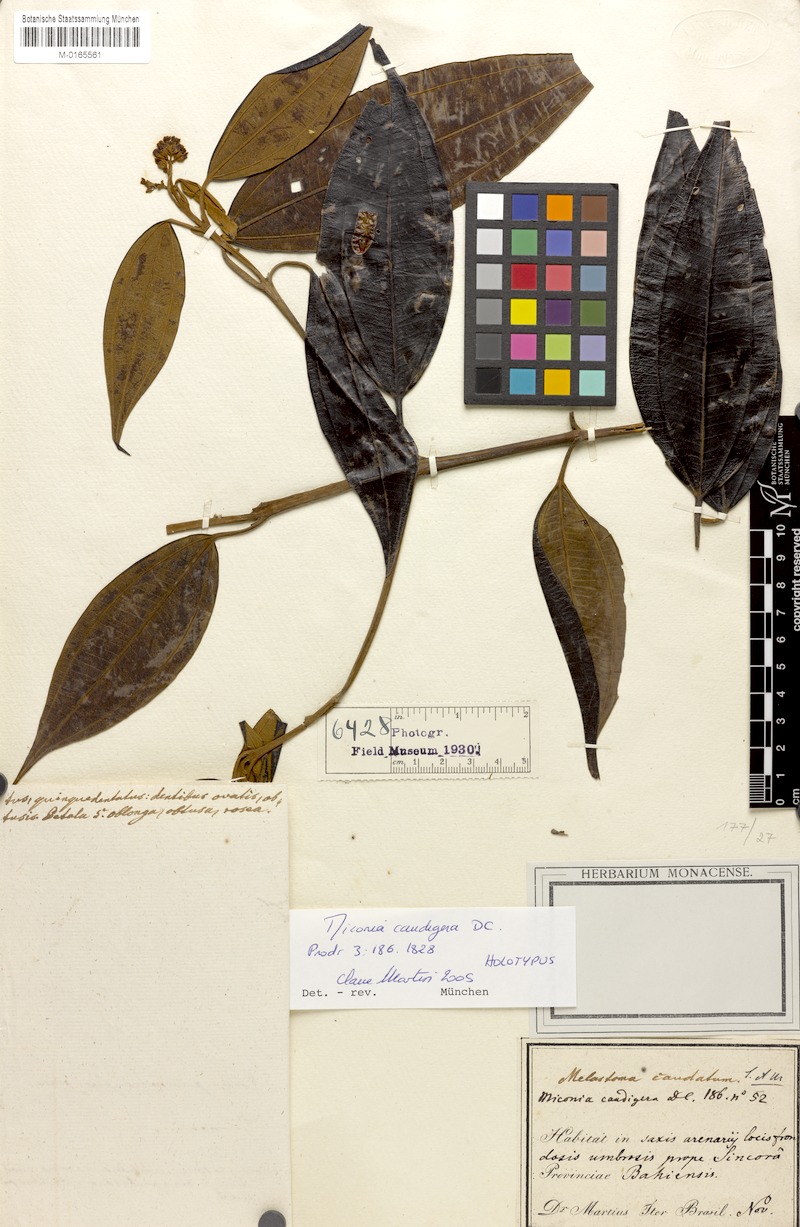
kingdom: Plantae
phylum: Tracheophyta
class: Magnoliopsida
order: Myrtales
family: Melastomataceae
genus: Miconia
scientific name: Miconia caudigera
